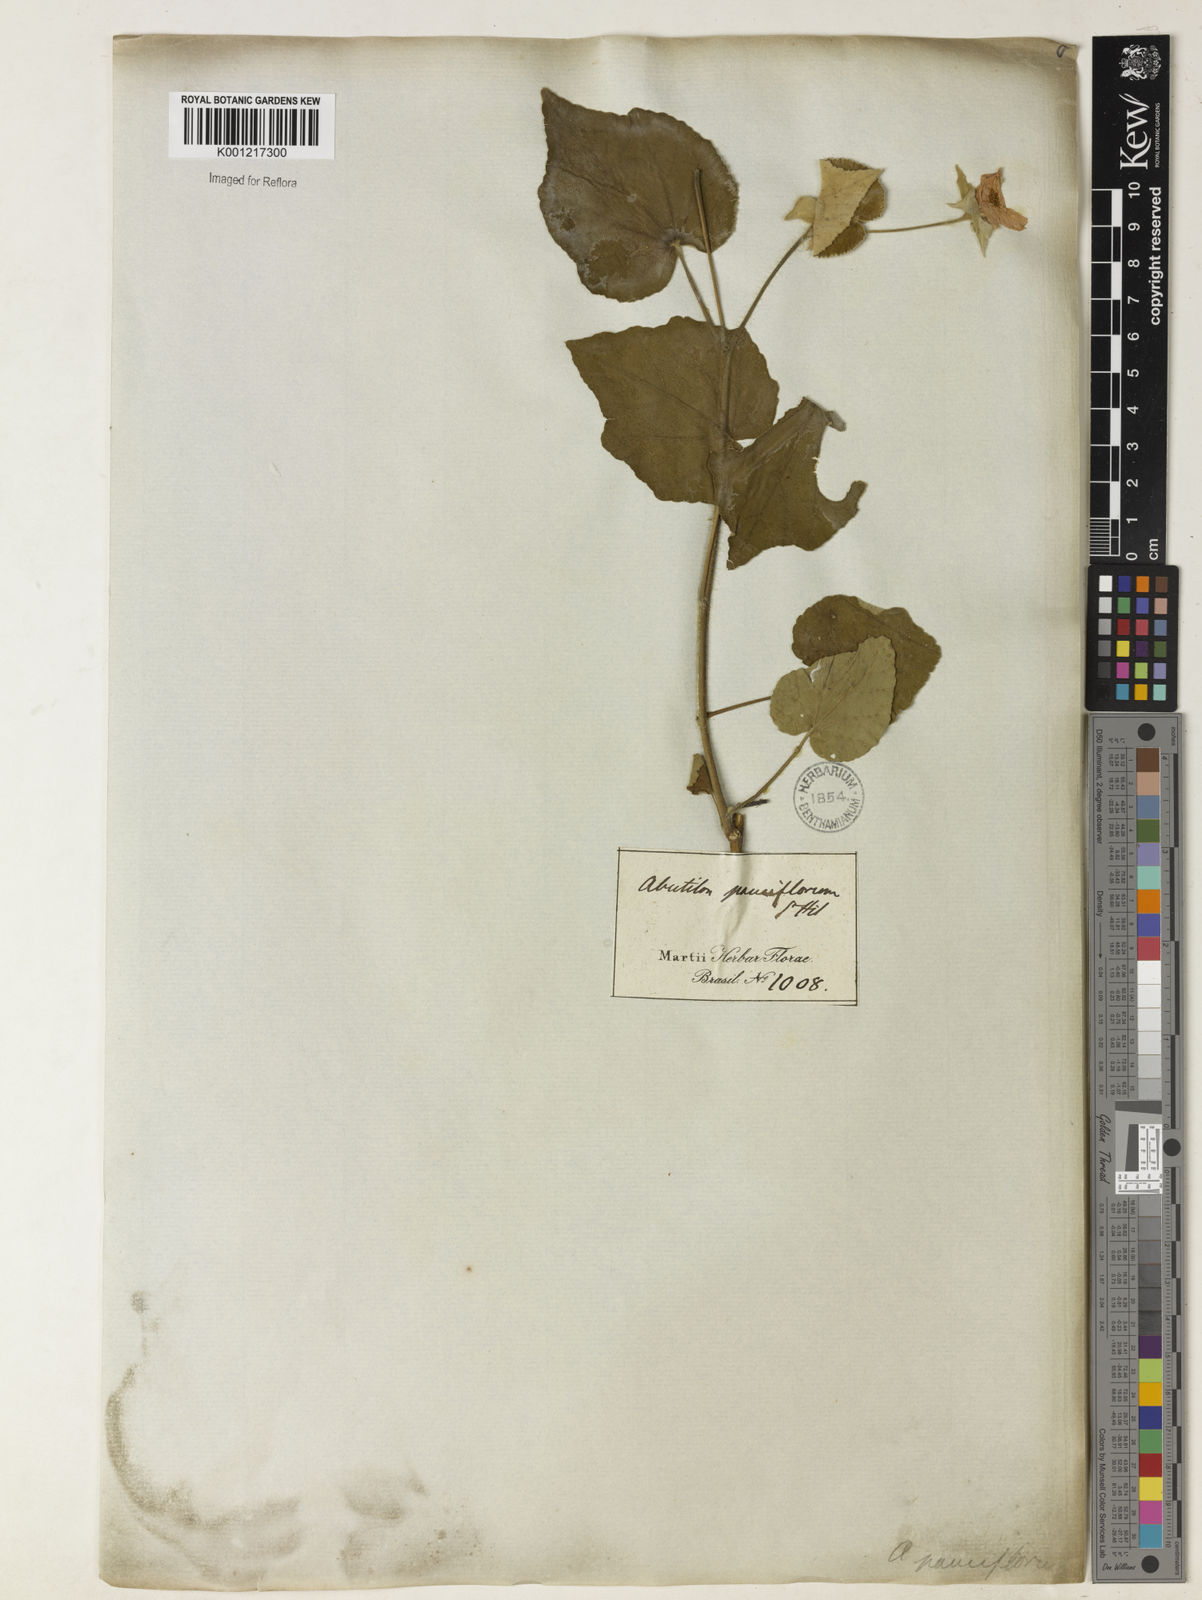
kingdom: Plantae
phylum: Tracheophyta
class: Magnoliopsida
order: Malvales
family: Malvaceae
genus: Callianthe
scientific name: Callianthe pauciflora
